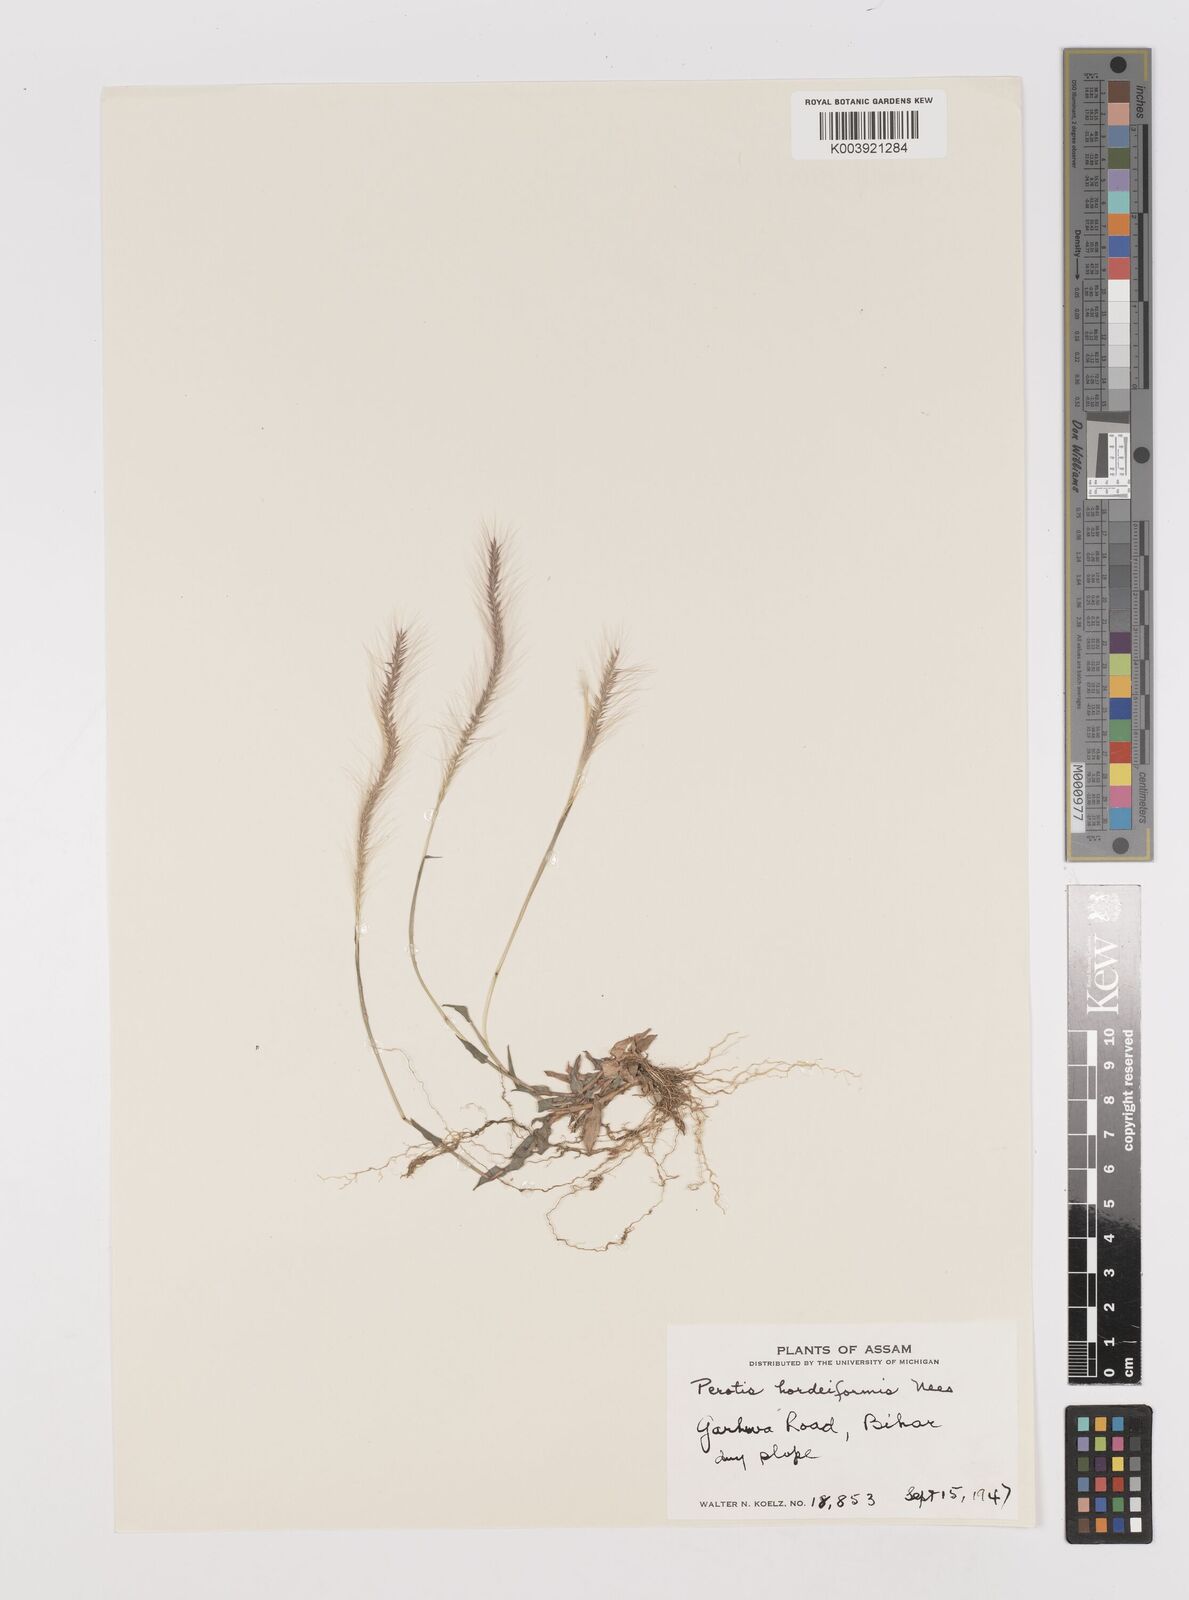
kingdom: Plantae
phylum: Tracheophyta
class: Liliopsida
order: Poales
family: Poaceae
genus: Perotis
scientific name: Perotis hordeiformis
